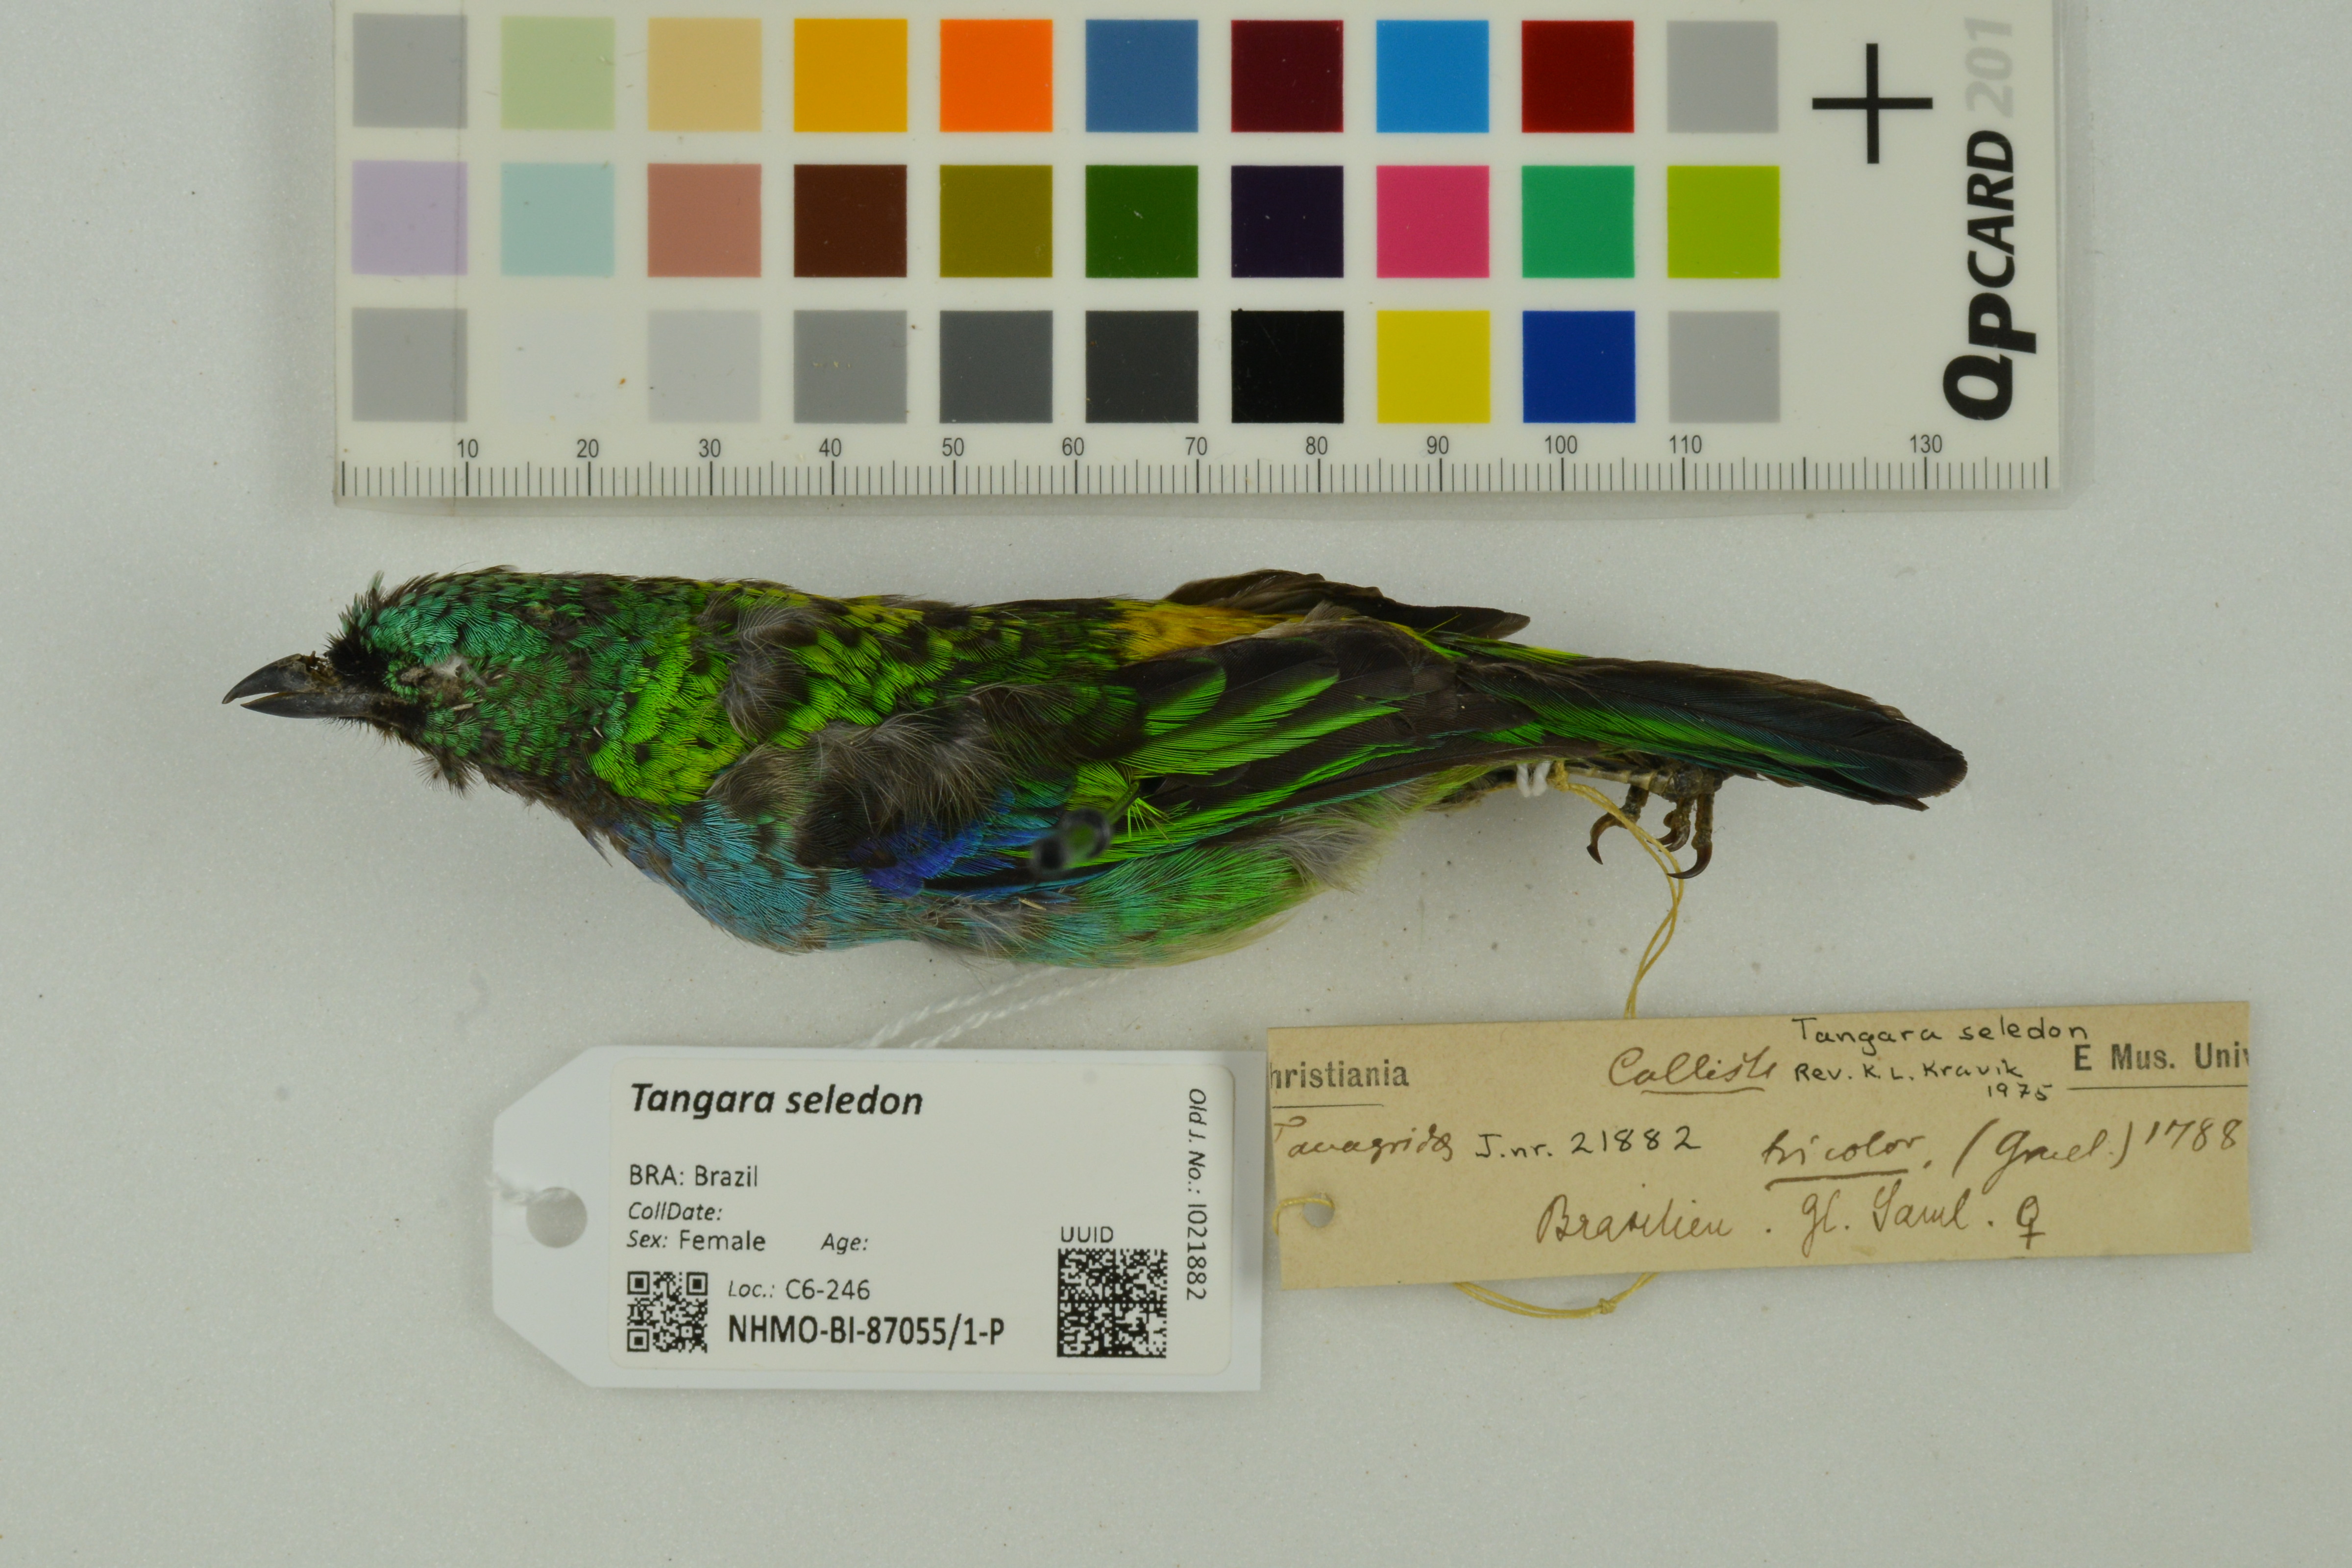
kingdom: Animalia
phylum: Chordata
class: Aves
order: Passeriformes
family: Thraupidae
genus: Tangara
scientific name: Tangara seledon
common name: Green-headed tanager
